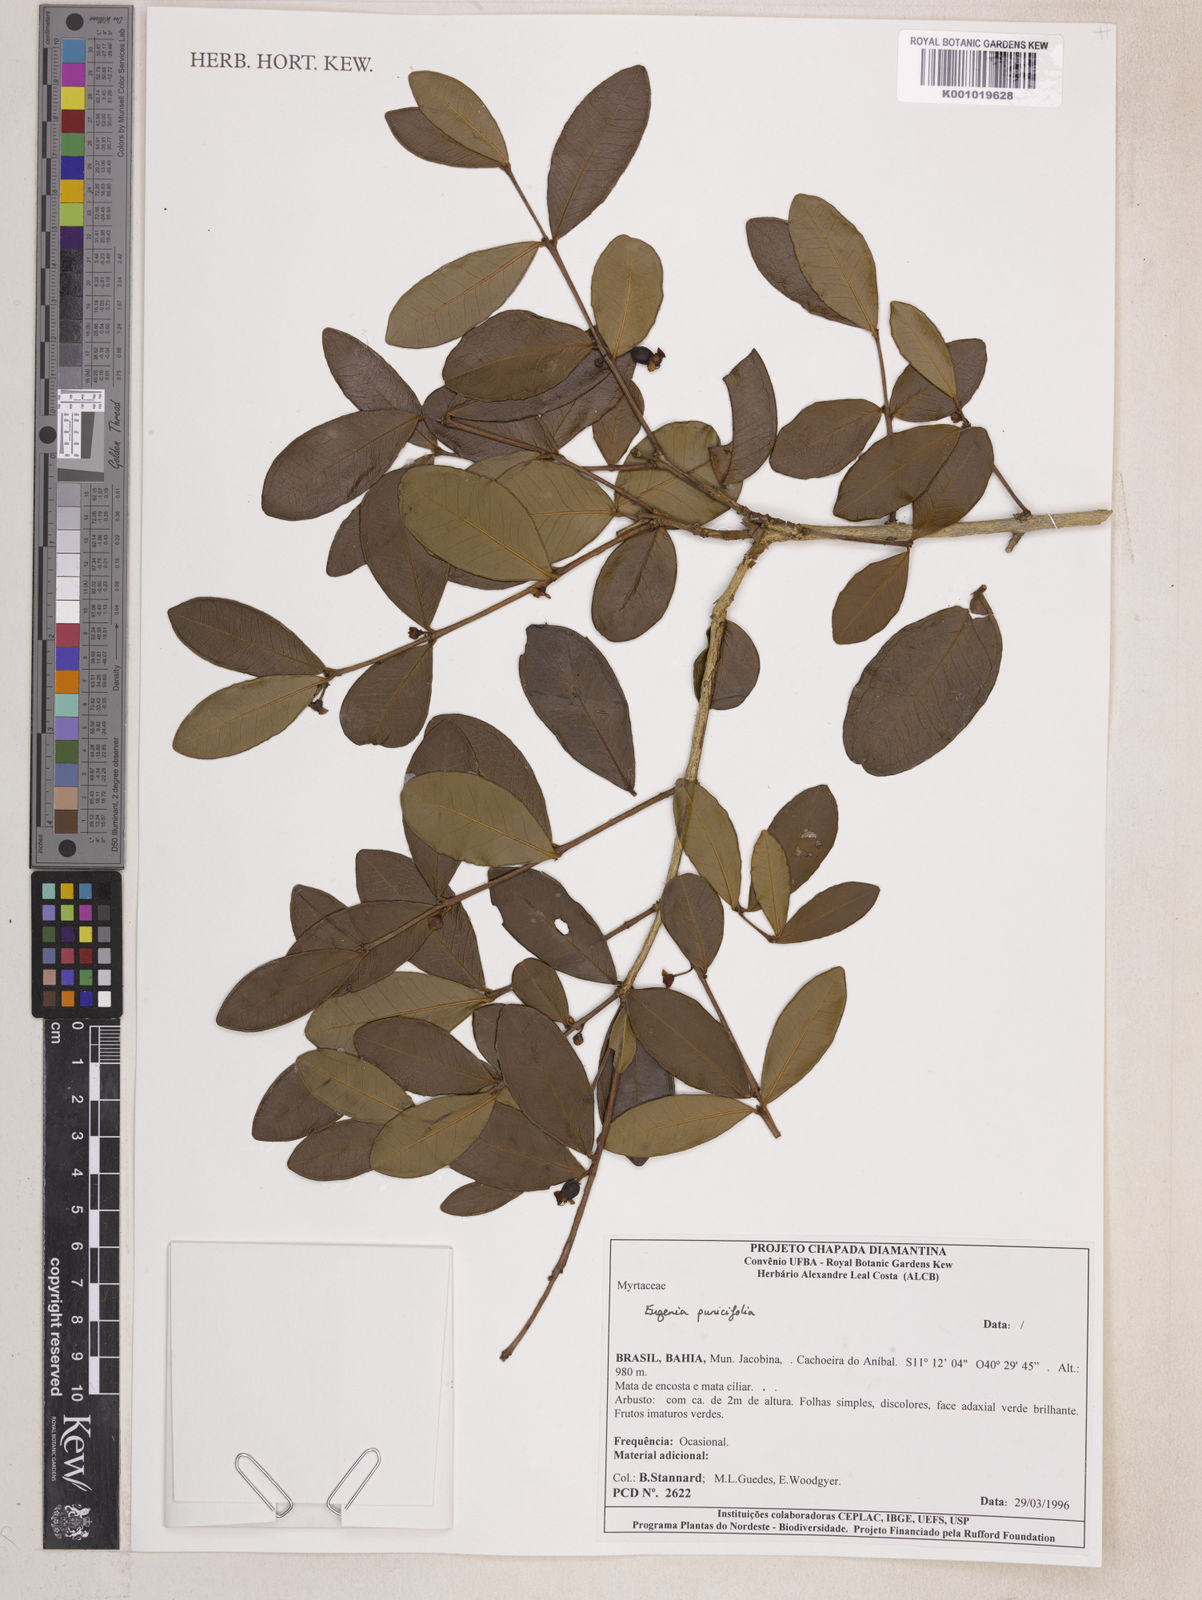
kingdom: Plantae
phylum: Tracheophyta
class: Magnoliopsida
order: Myrtales
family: Myrtaceae
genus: Eugenia
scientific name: Eugenia punicifolia
